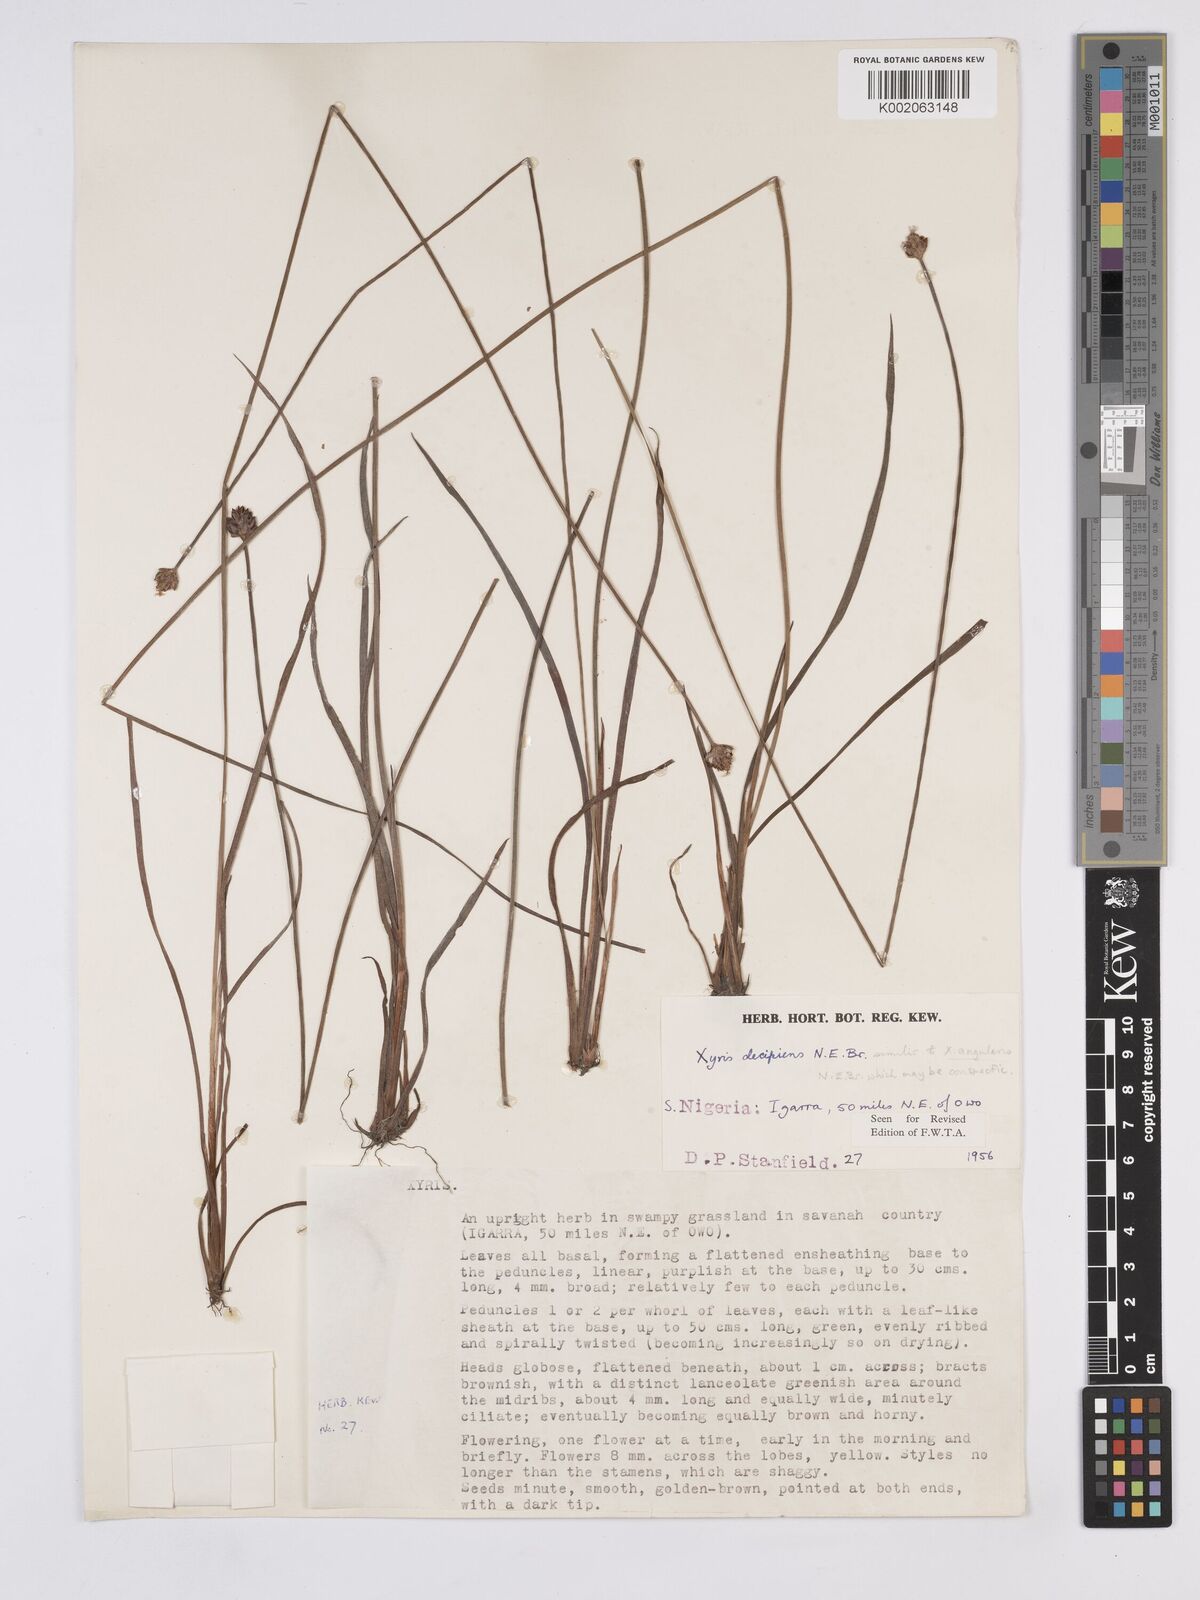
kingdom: Plantae
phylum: Tracheophyta
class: Liliopsida
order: Poales
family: Xyridaceae
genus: Xyris
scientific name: Xyris decipiens
